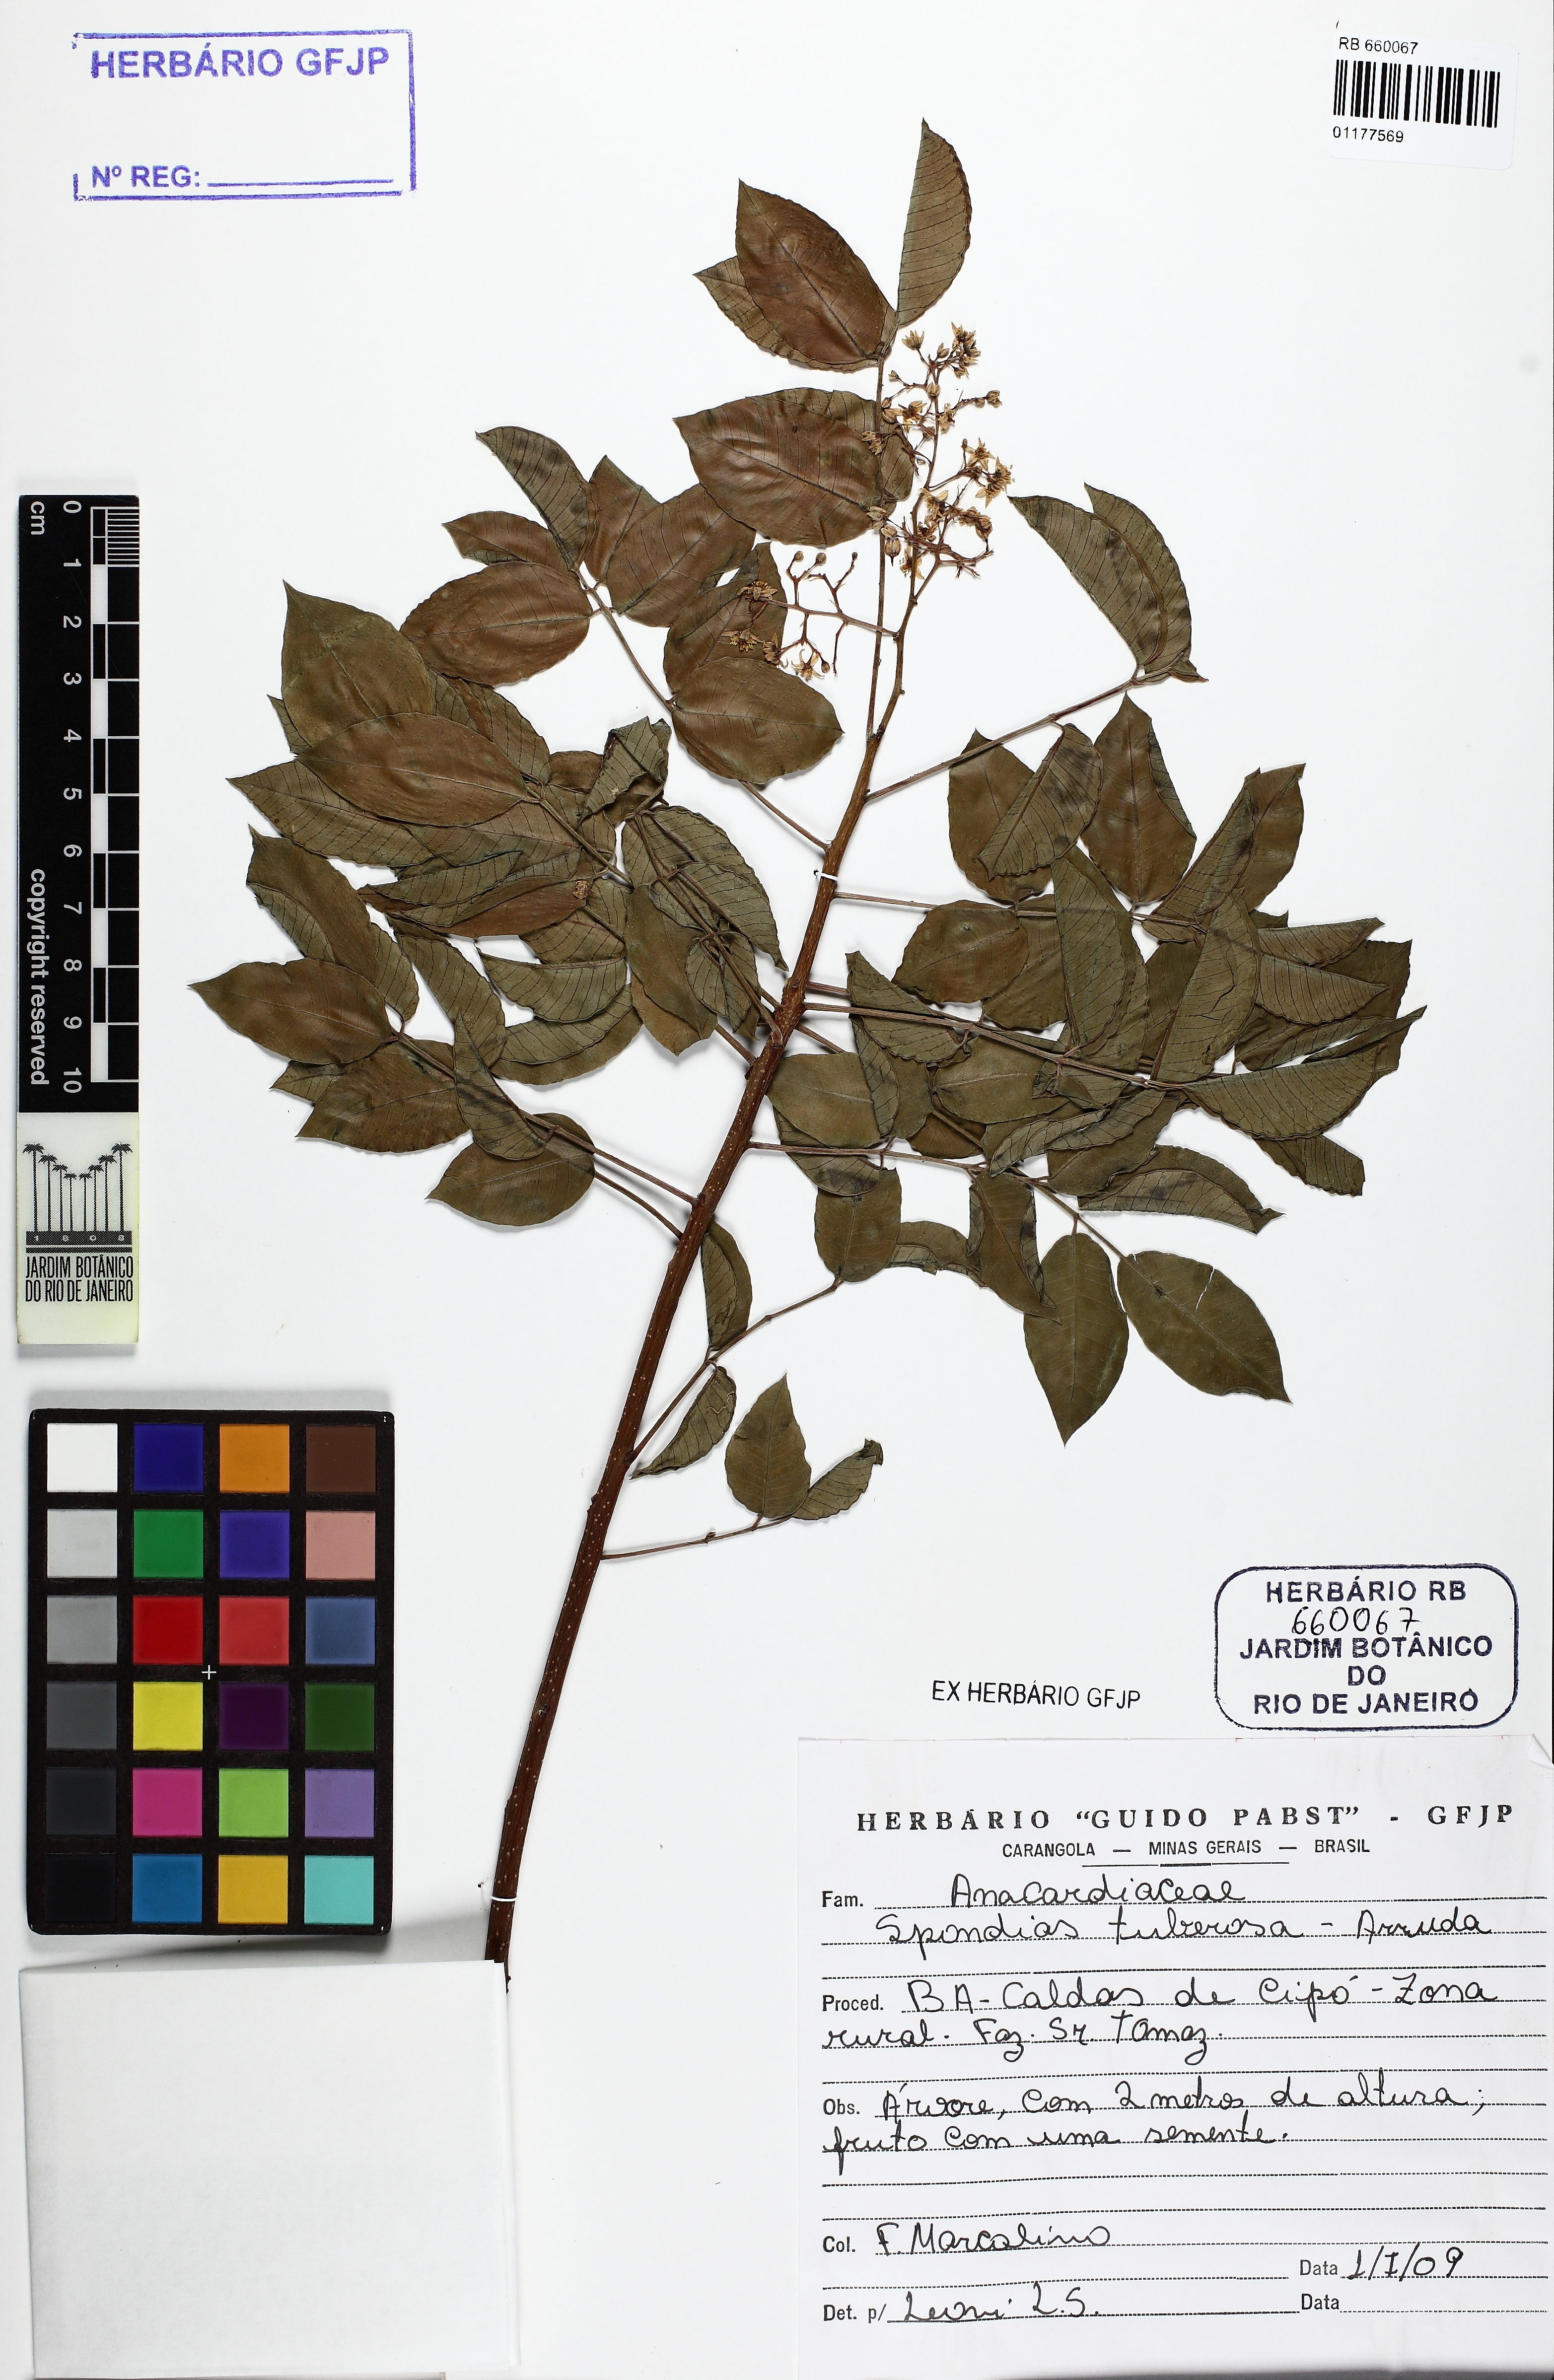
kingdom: Plantae
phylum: Tracheophyta
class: Magnoliopsida
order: Sapindales
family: Anacardiaceae
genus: Spondias
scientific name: Spondias tuberosa
